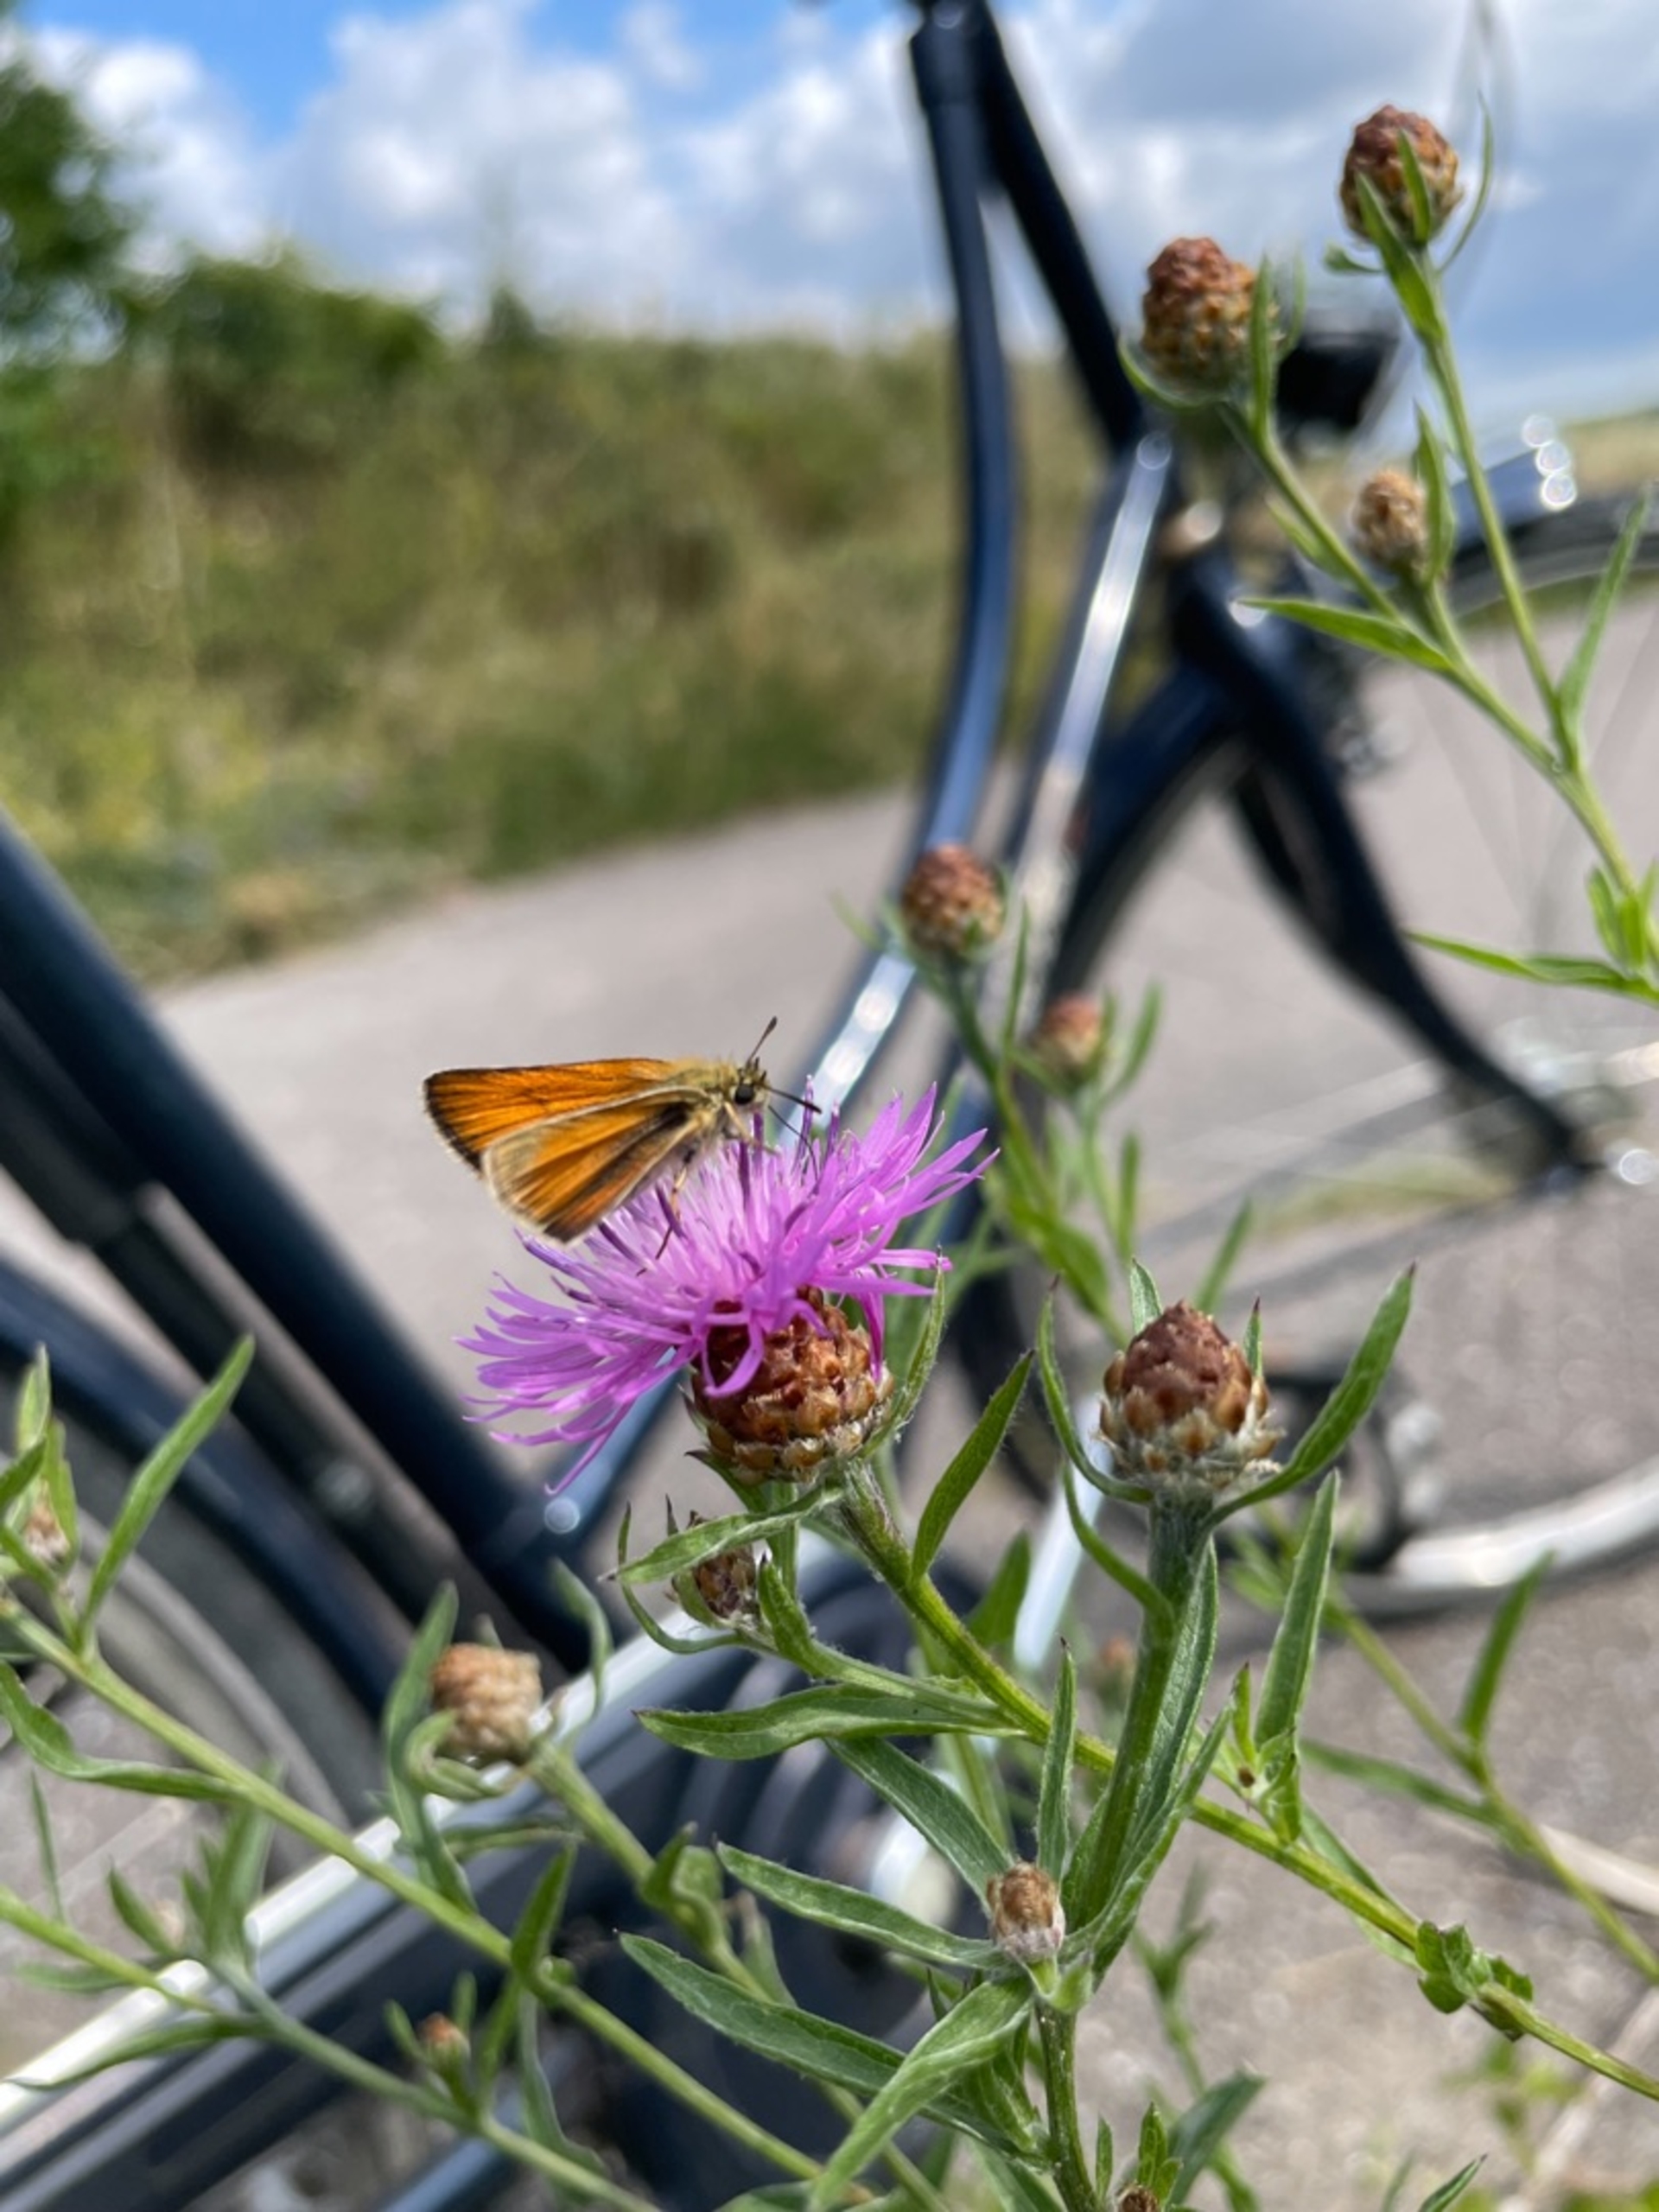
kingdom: Animalia
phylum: Arthropoda
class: Insecta
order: Lepidoptera
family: Hesperiidae
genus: Thymelicus
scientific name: Thymelicus lineola
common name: Stregbredpande
